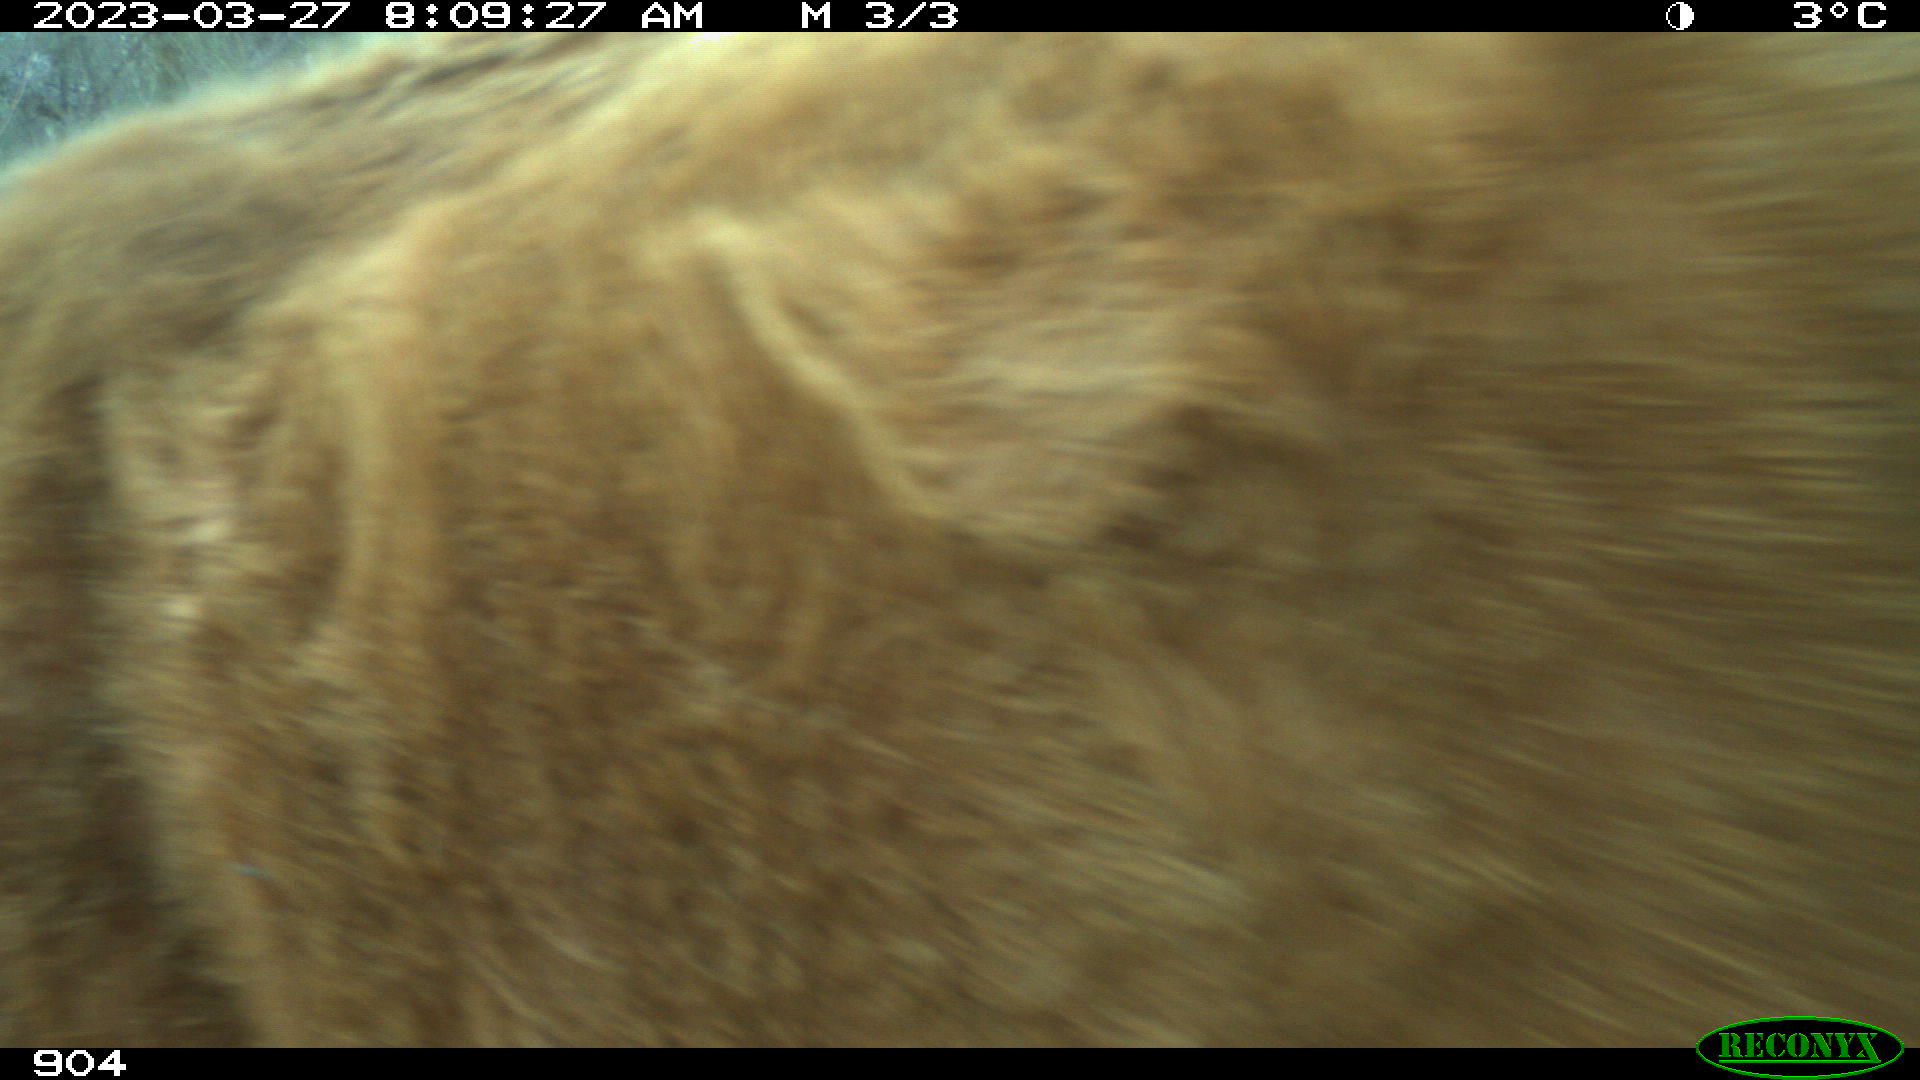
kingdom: Animalia
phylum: Chordata
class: Mammalia
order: Artiodactyla
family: Bovidae
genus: Bos
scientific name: Bos taurus
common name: Domesticated cattle
